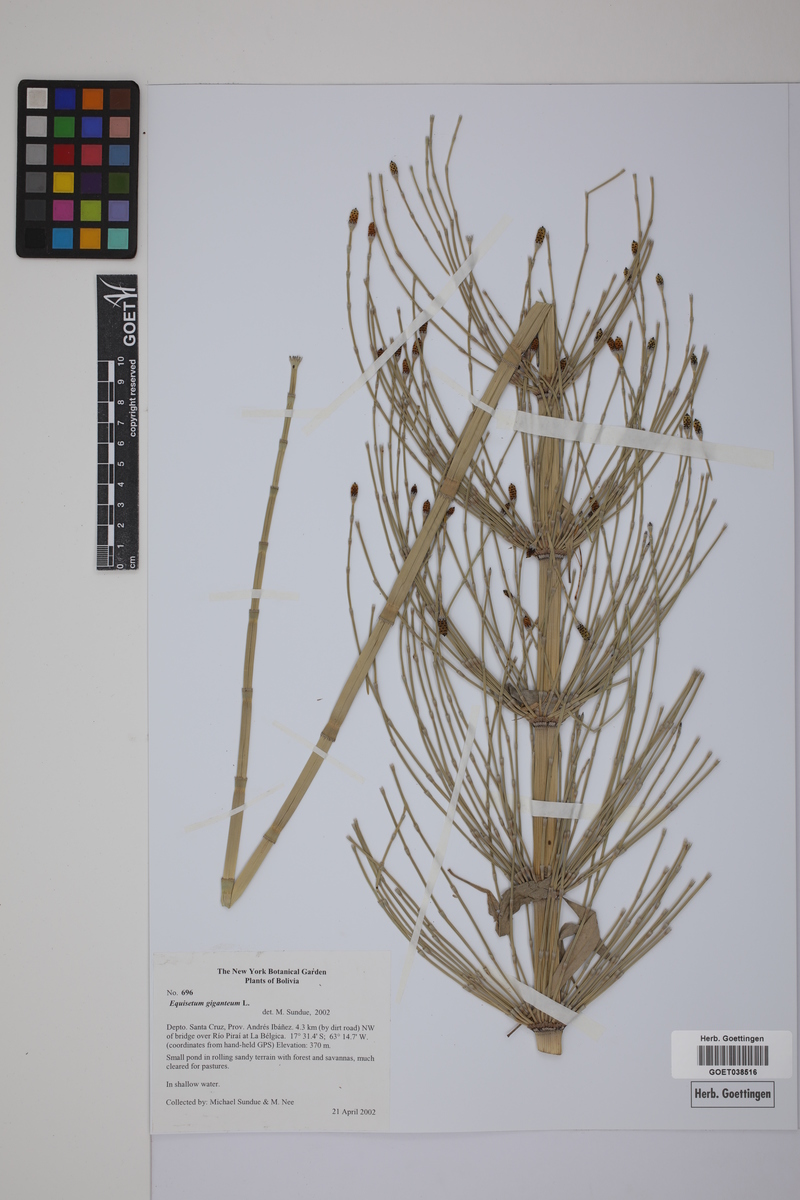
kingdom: Plantae
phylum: Tracheophyta
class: Polypodiopsida
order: Equisetales
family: Equisetaceae
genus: Equisetum
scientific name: Equisetum giganteum
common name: Giant horsetail
